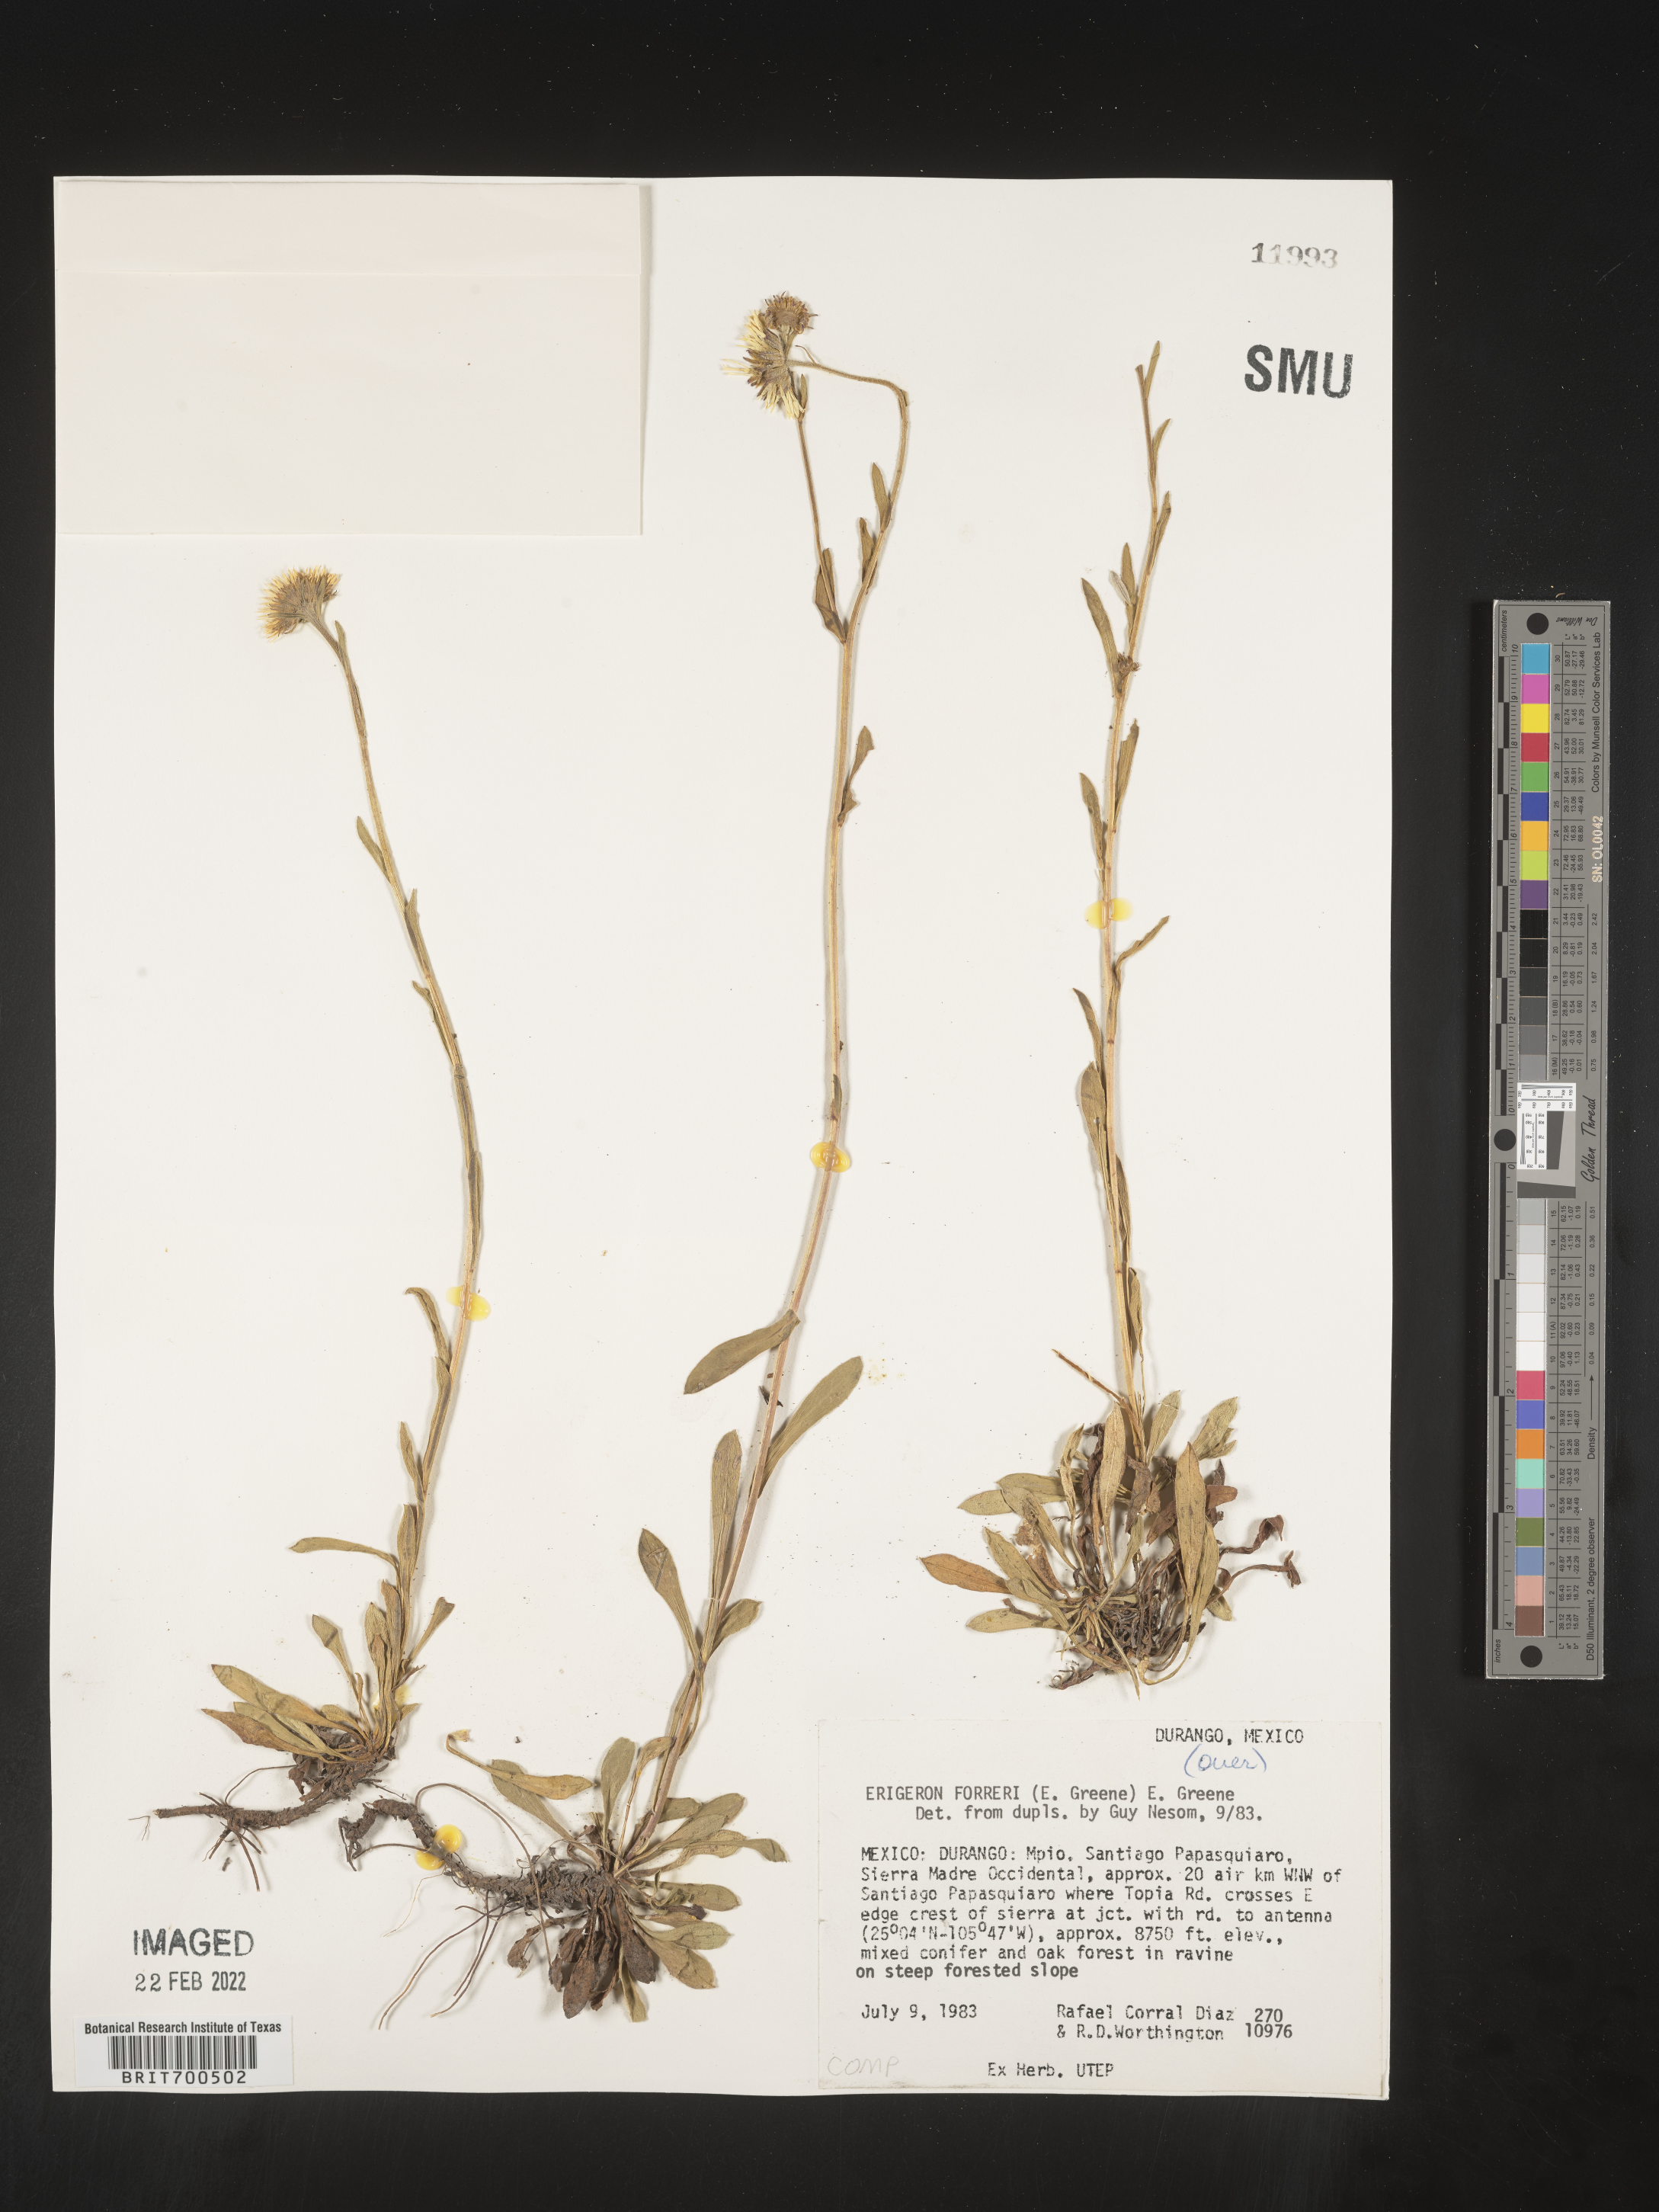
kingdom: Plantae
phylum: Tracheophyta
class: Magnoliopsida
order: Asterales
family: Asteraceae
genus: Erigeron
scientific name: Erigeron
